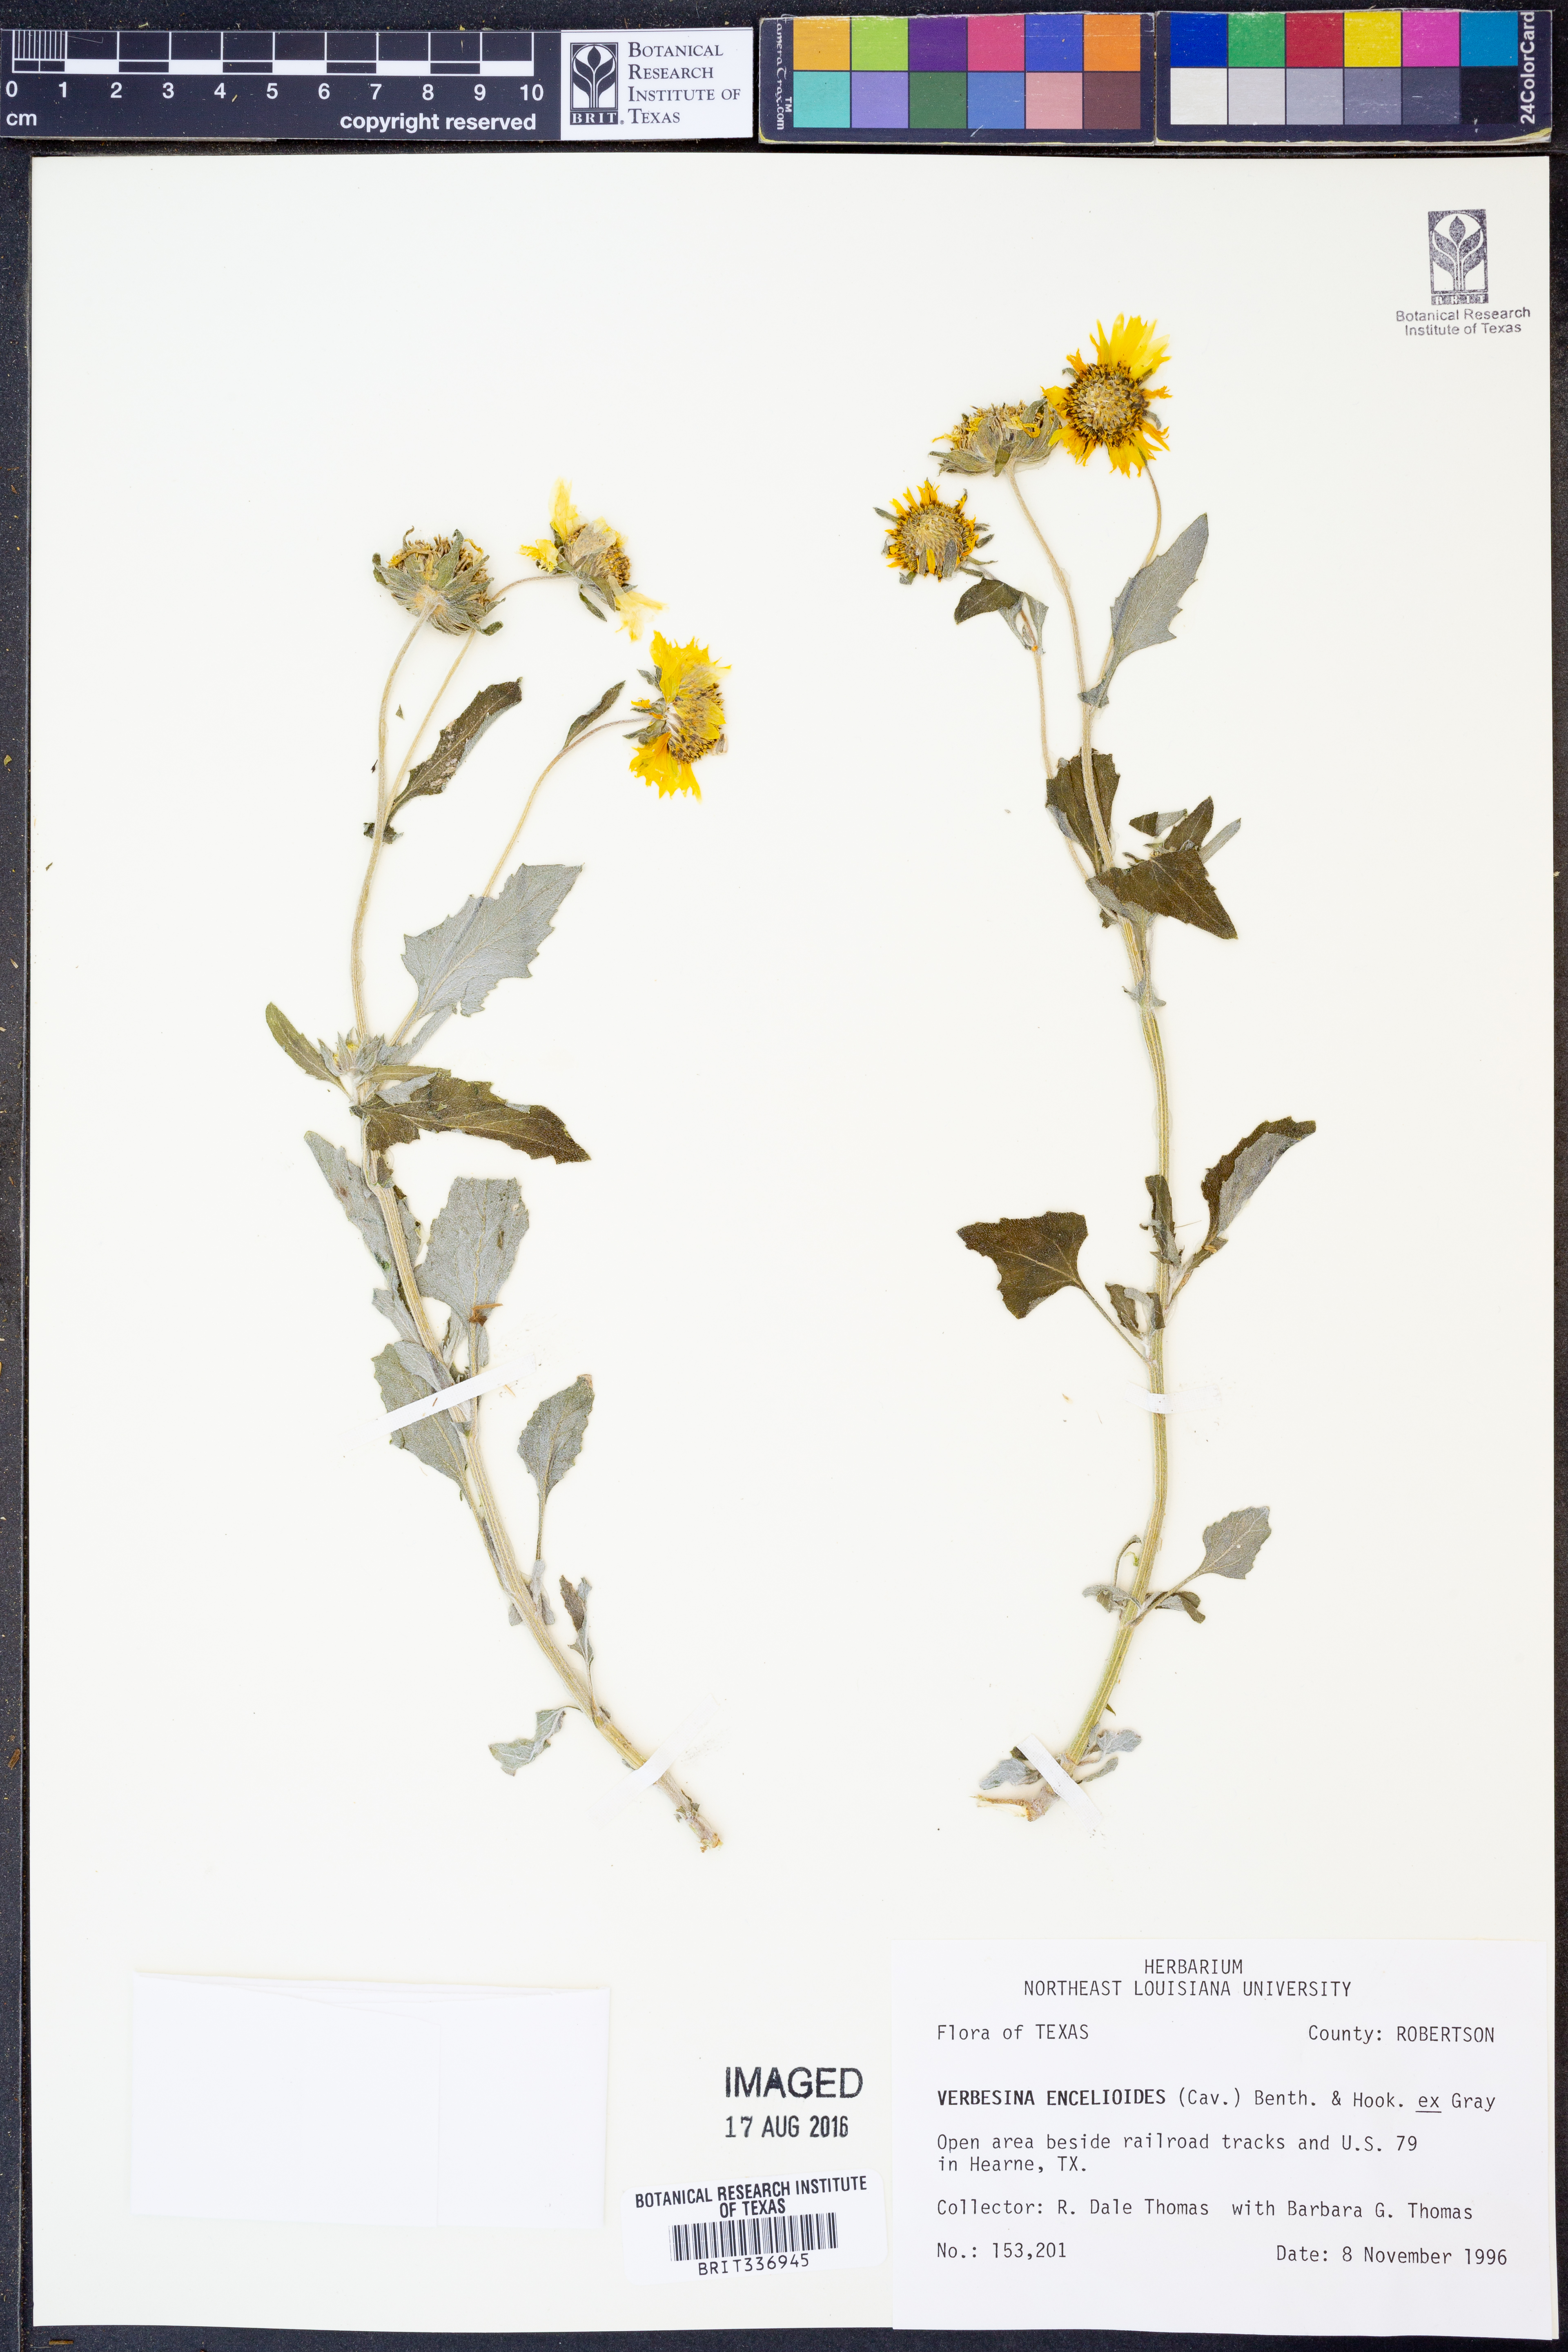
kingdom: Plantae
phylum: Tracheophyta
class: Magnoliopsida
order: Asterales
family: Asteraceae
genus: Verbesina
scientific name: Verbesina encelioides
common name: Golden crownbeard
